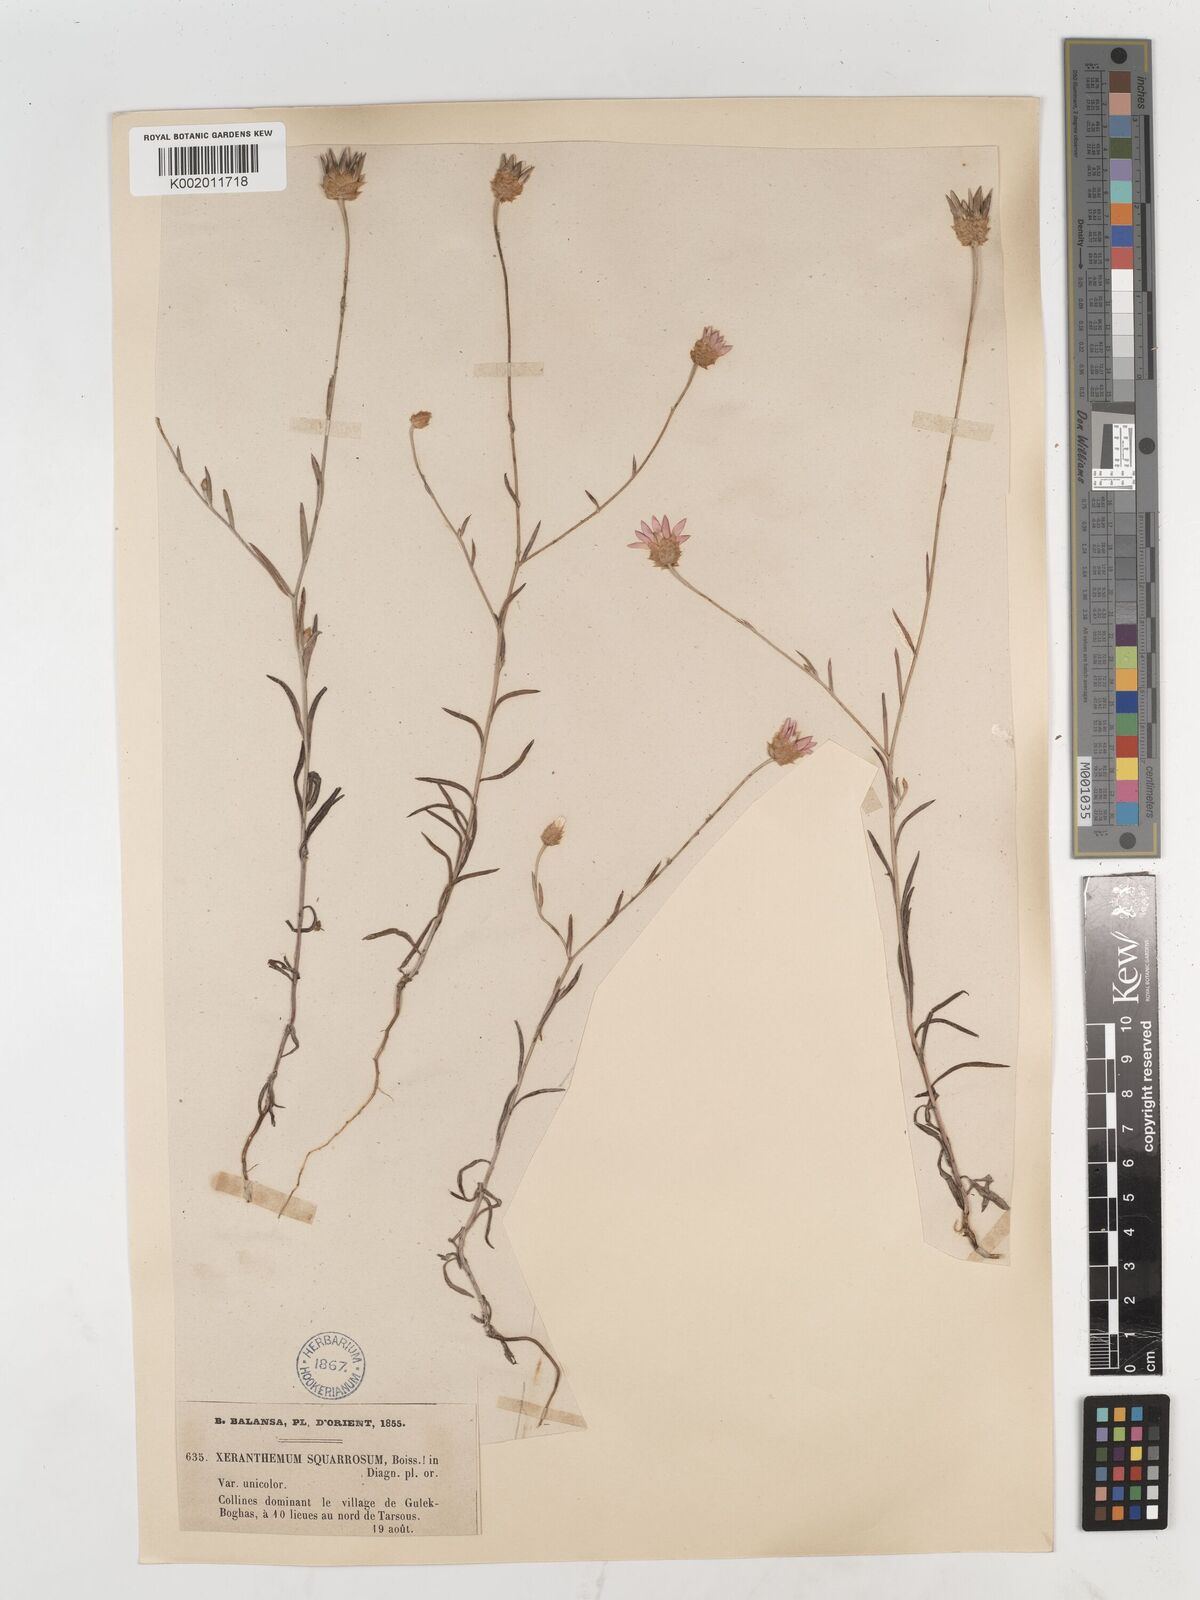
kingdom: Plantae
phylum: Tracheophyta
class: Magnoliopsida
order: Asterales
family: Asteraceae
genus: Xeranthemum
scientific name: Xeranthemum squarrosum
